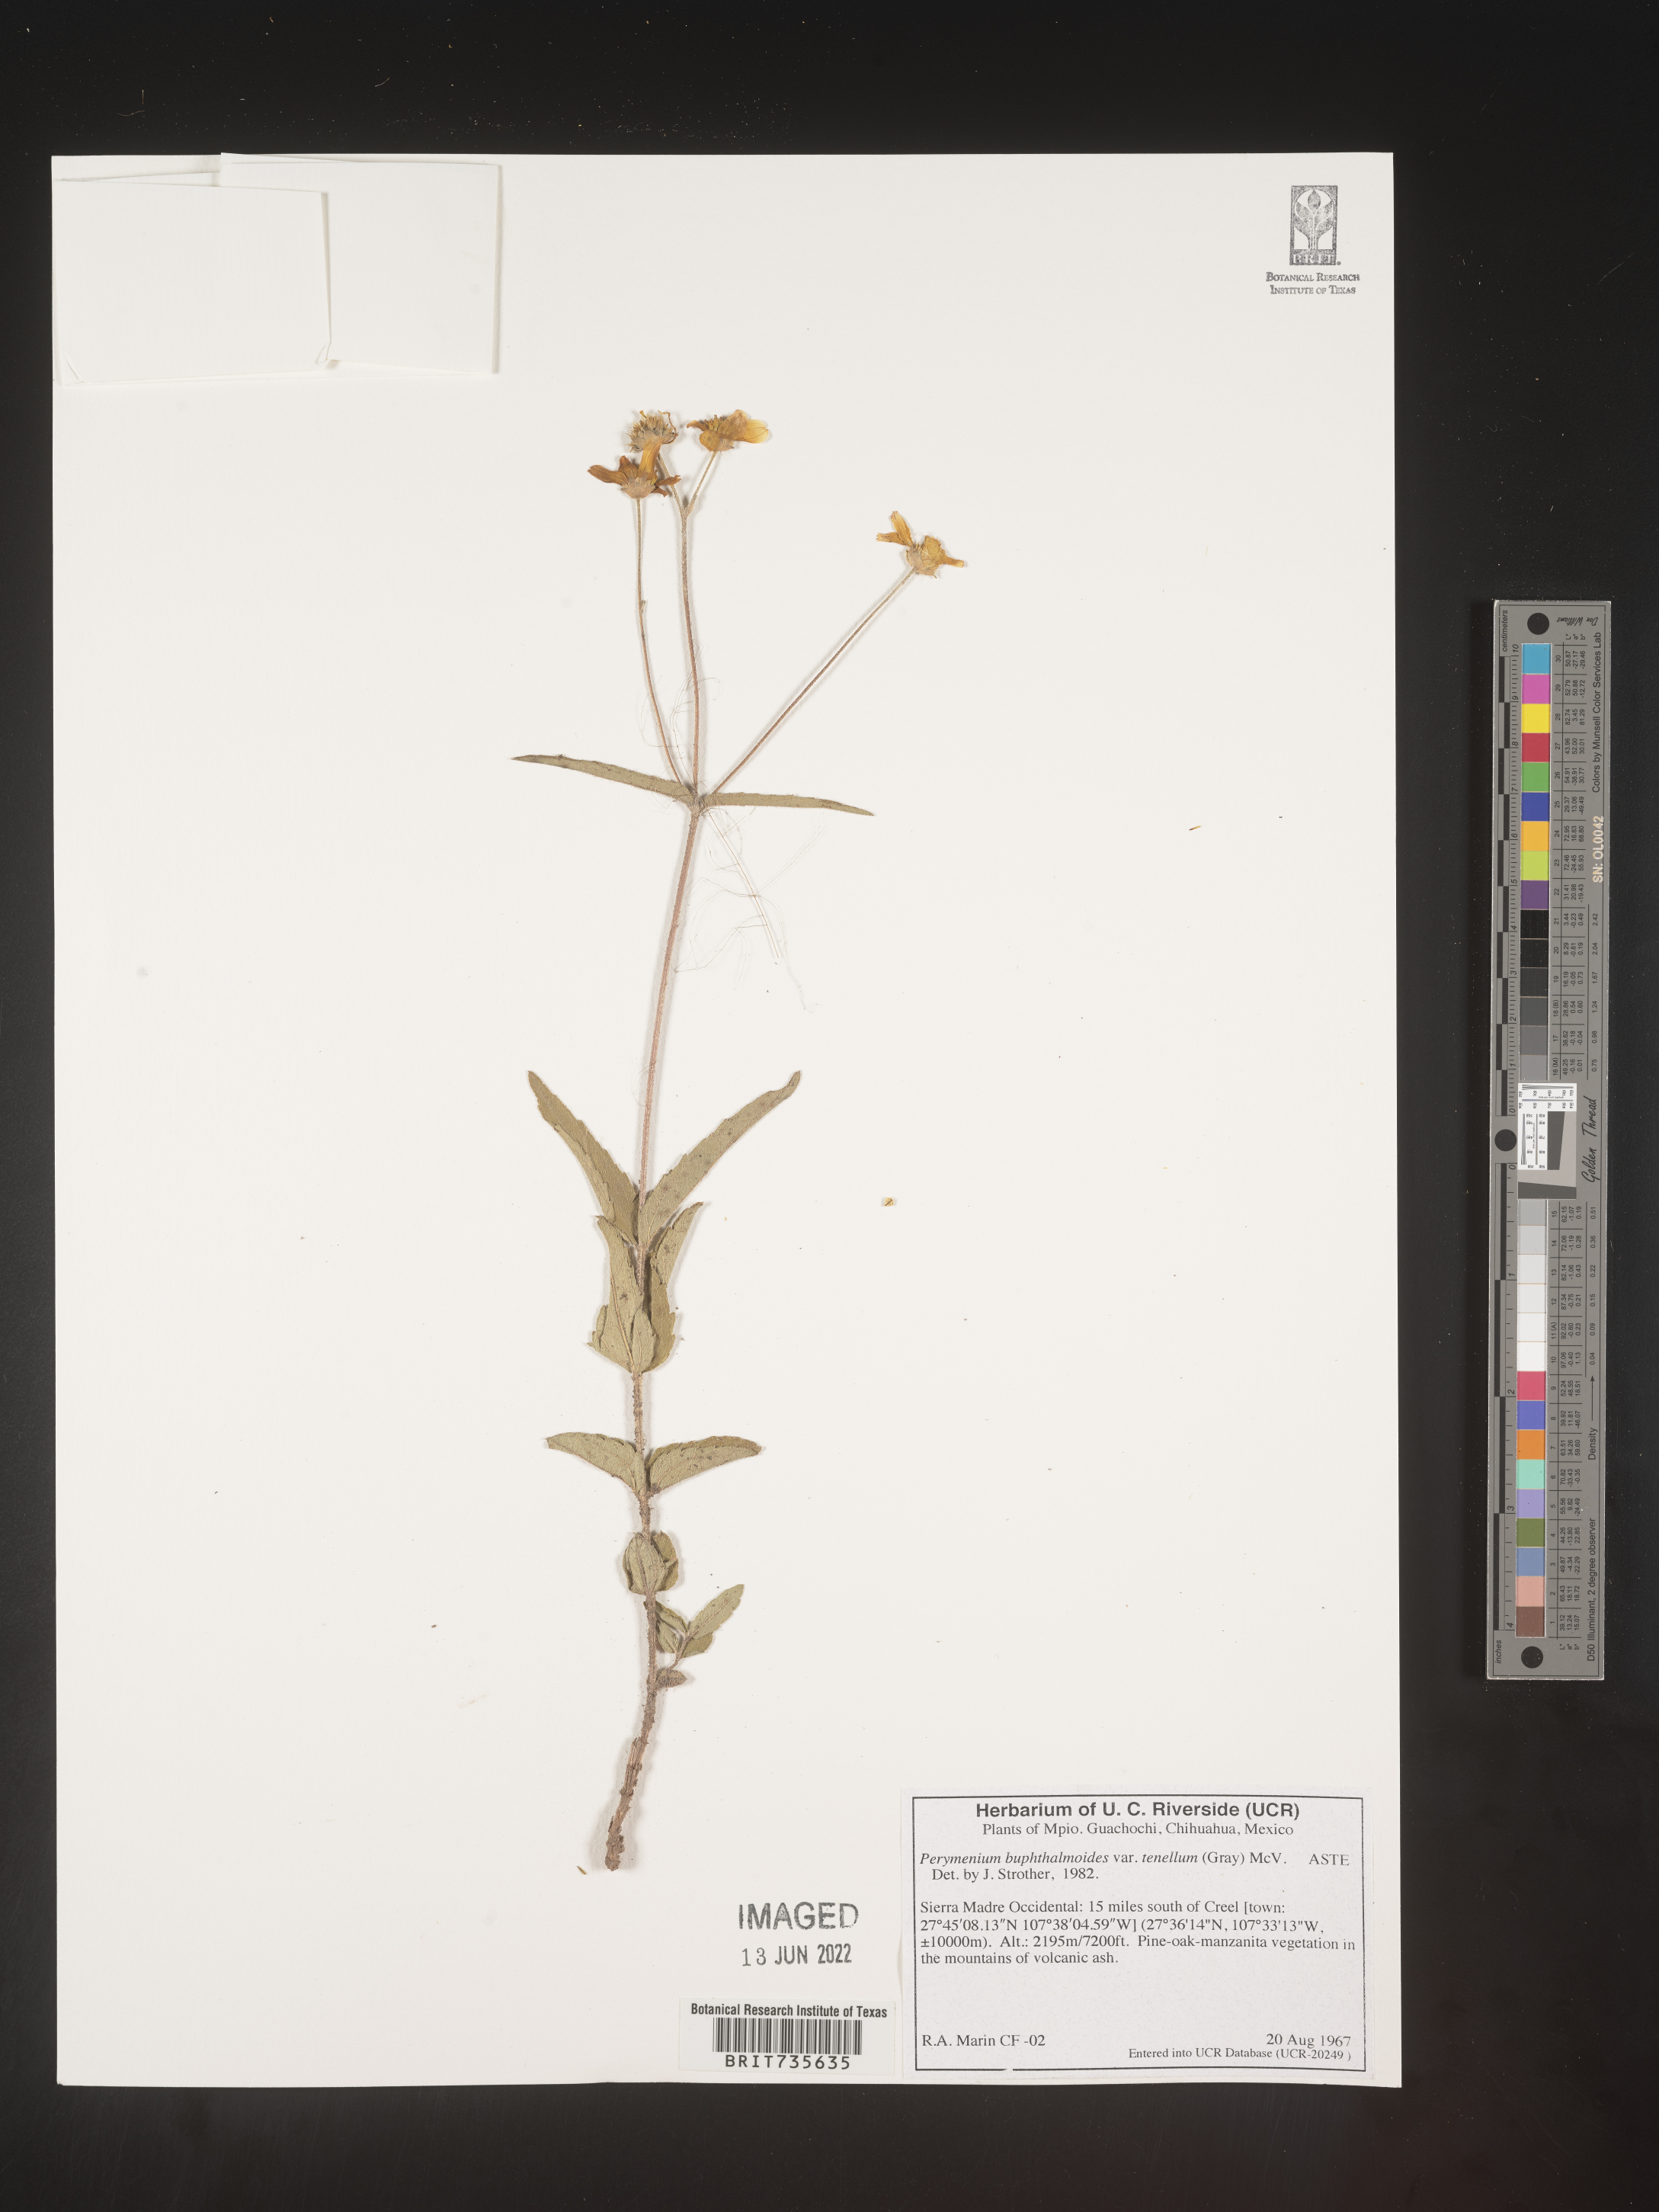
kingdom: Plantae
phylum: Tracheophyta
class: Magnoliopsida
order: Asterales
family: Asteraceae
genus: Perymenium
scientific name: Perymenium
